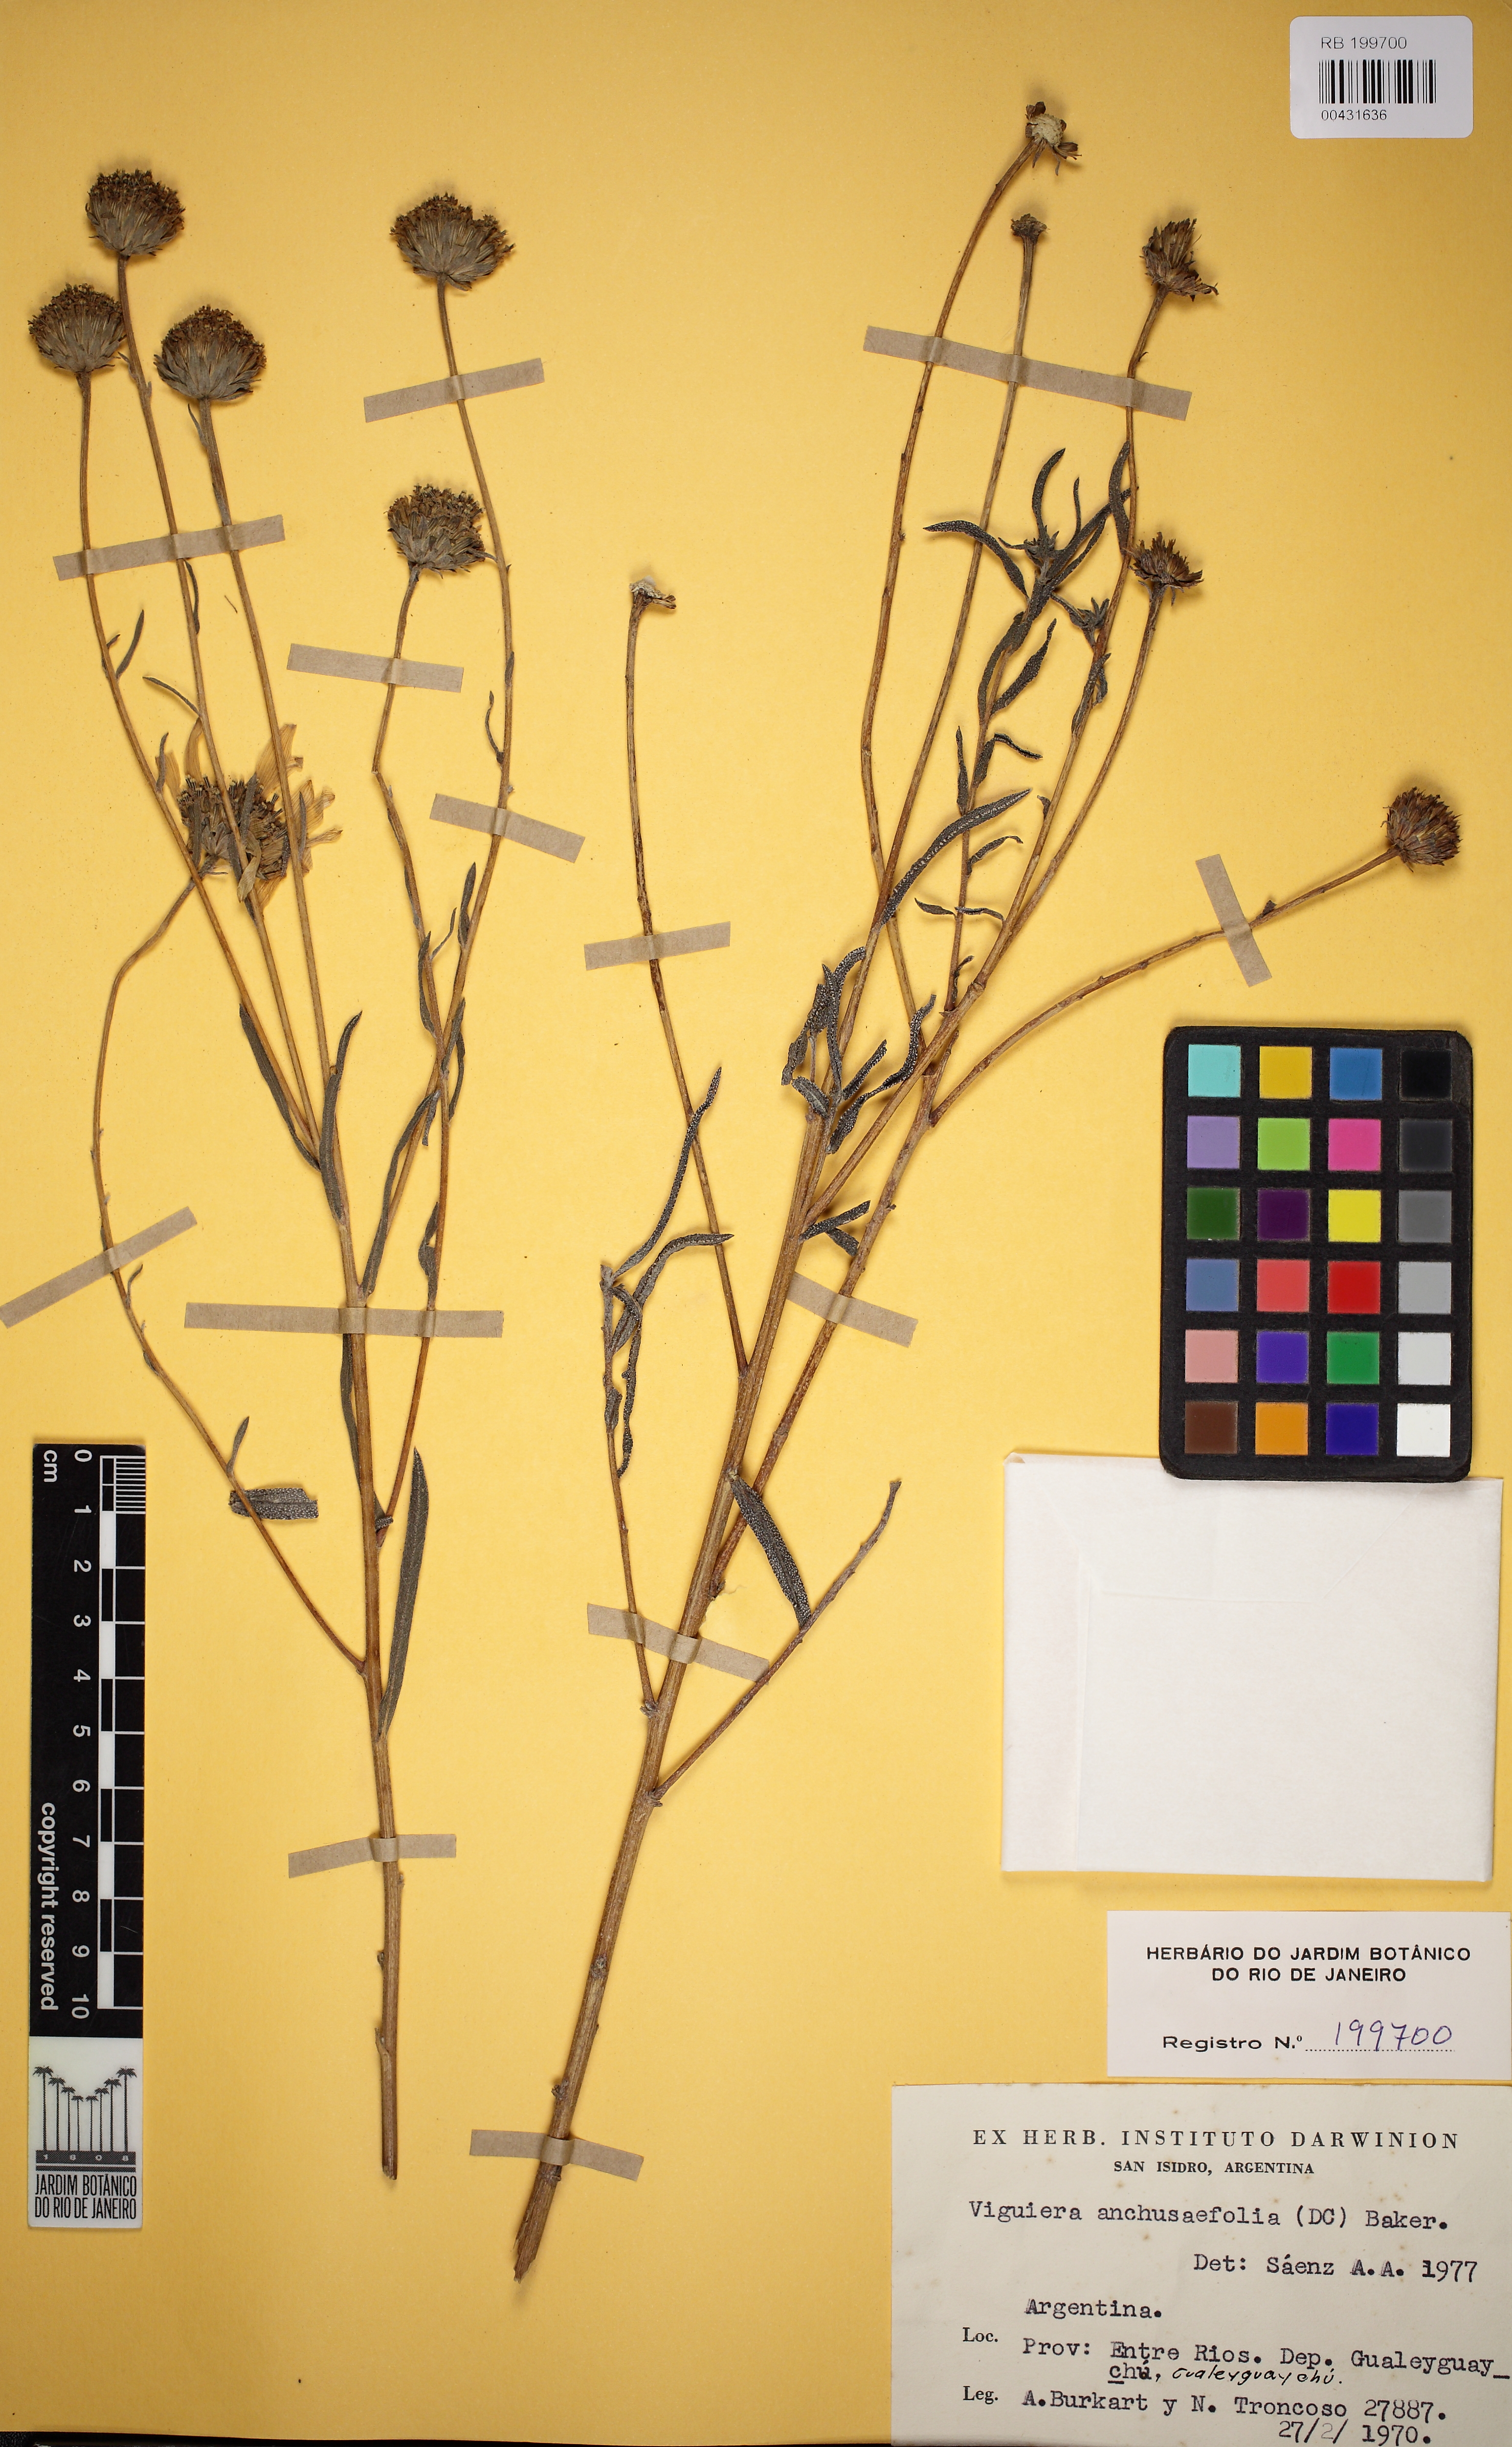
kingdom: Plantae
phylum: Tracheophyta
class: Magnoliopsida
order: Asterales
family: Asteraceae
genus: Viguiera
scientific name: Viguiera anchusaefolia
